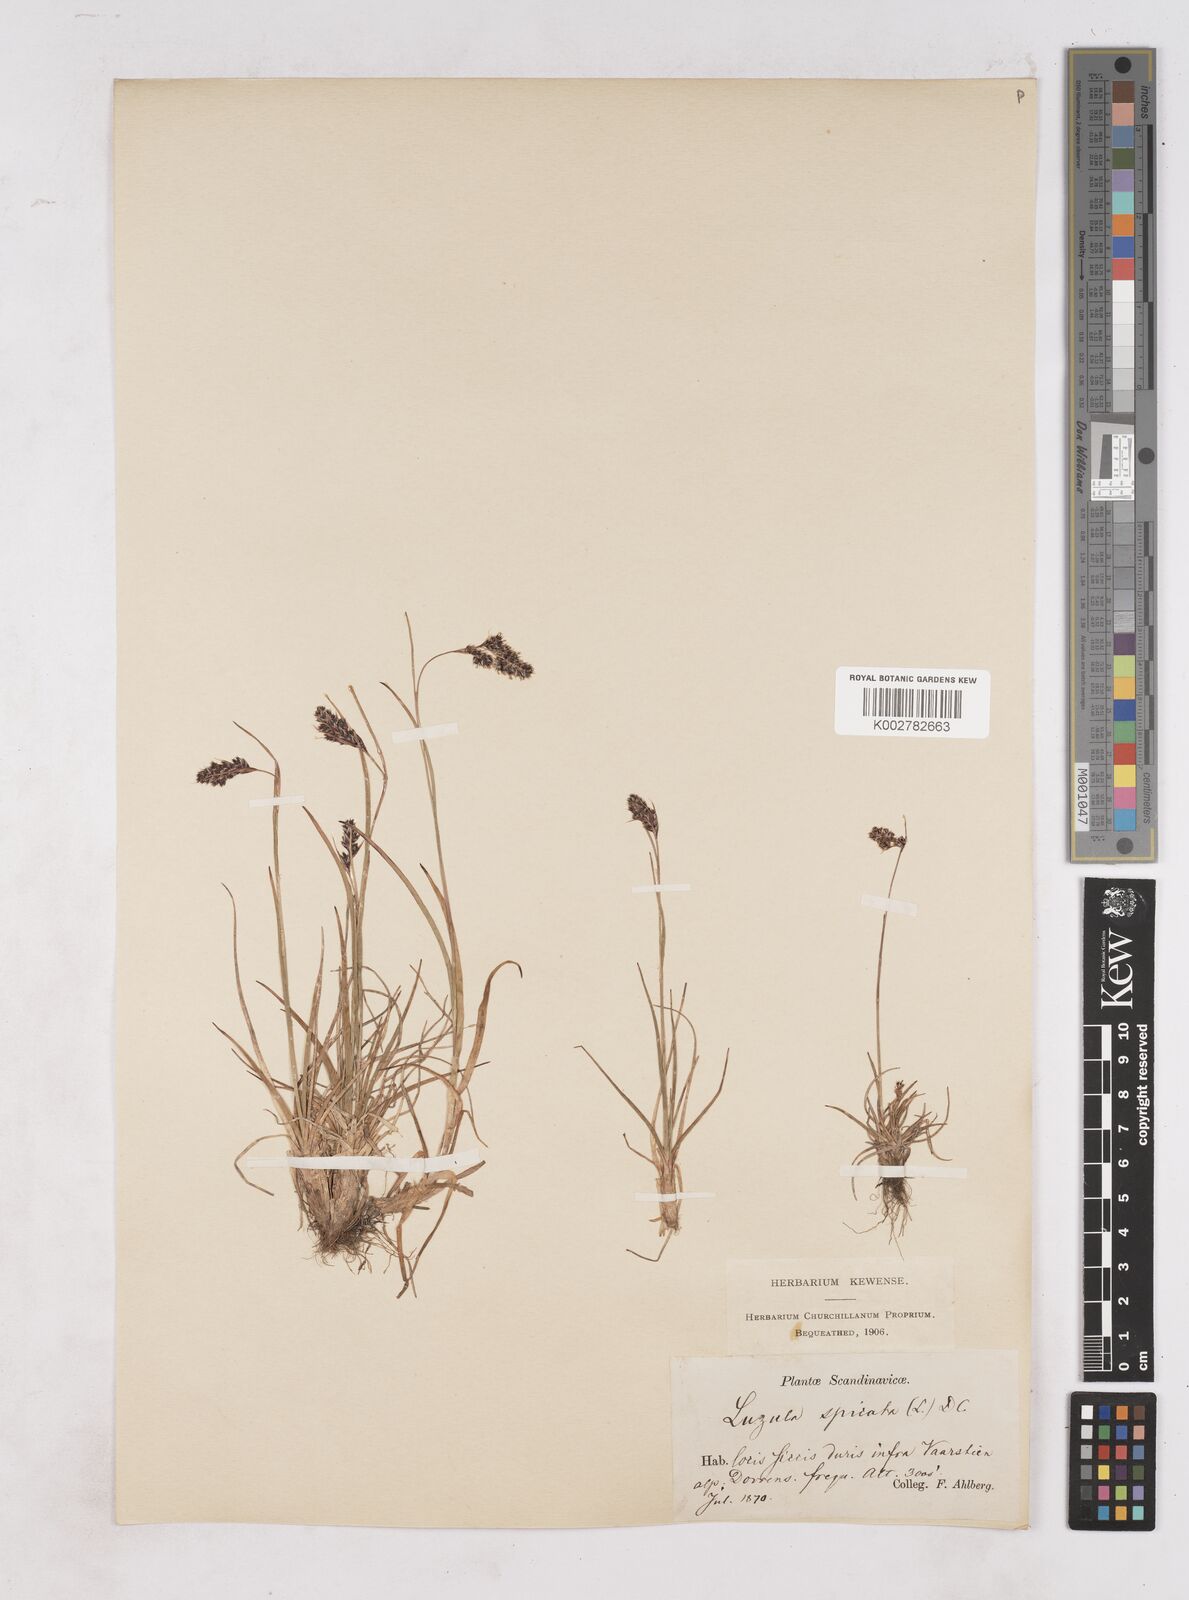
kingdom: Plantae
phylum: Tracheophyta
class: Liliopsida
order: Poales
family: Juncaceae
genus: Luzula
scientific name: Luzula spicata
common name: Spiked wood-rush
